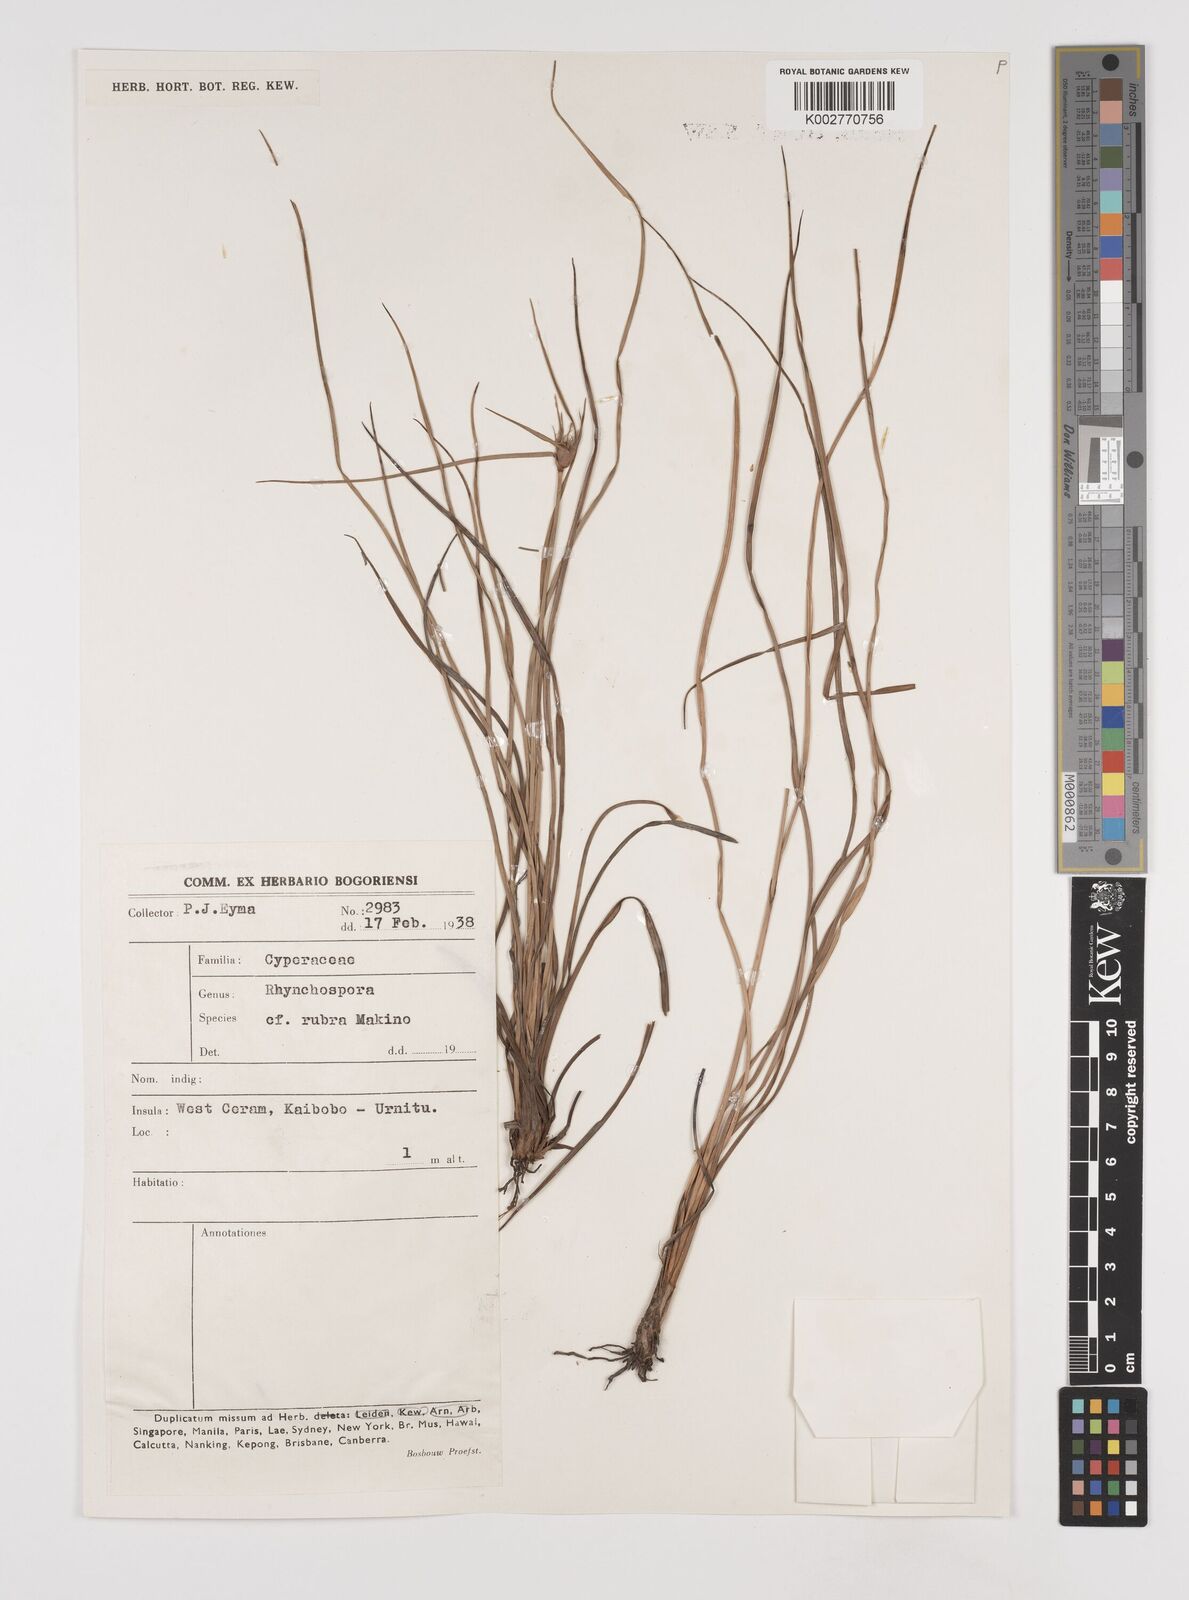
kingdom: Plantae
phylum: Tracheophyta
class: Liliopsida
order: Poales
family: Cyperaceae
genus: Rhynchospora
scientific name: Rhynchospora rubra
